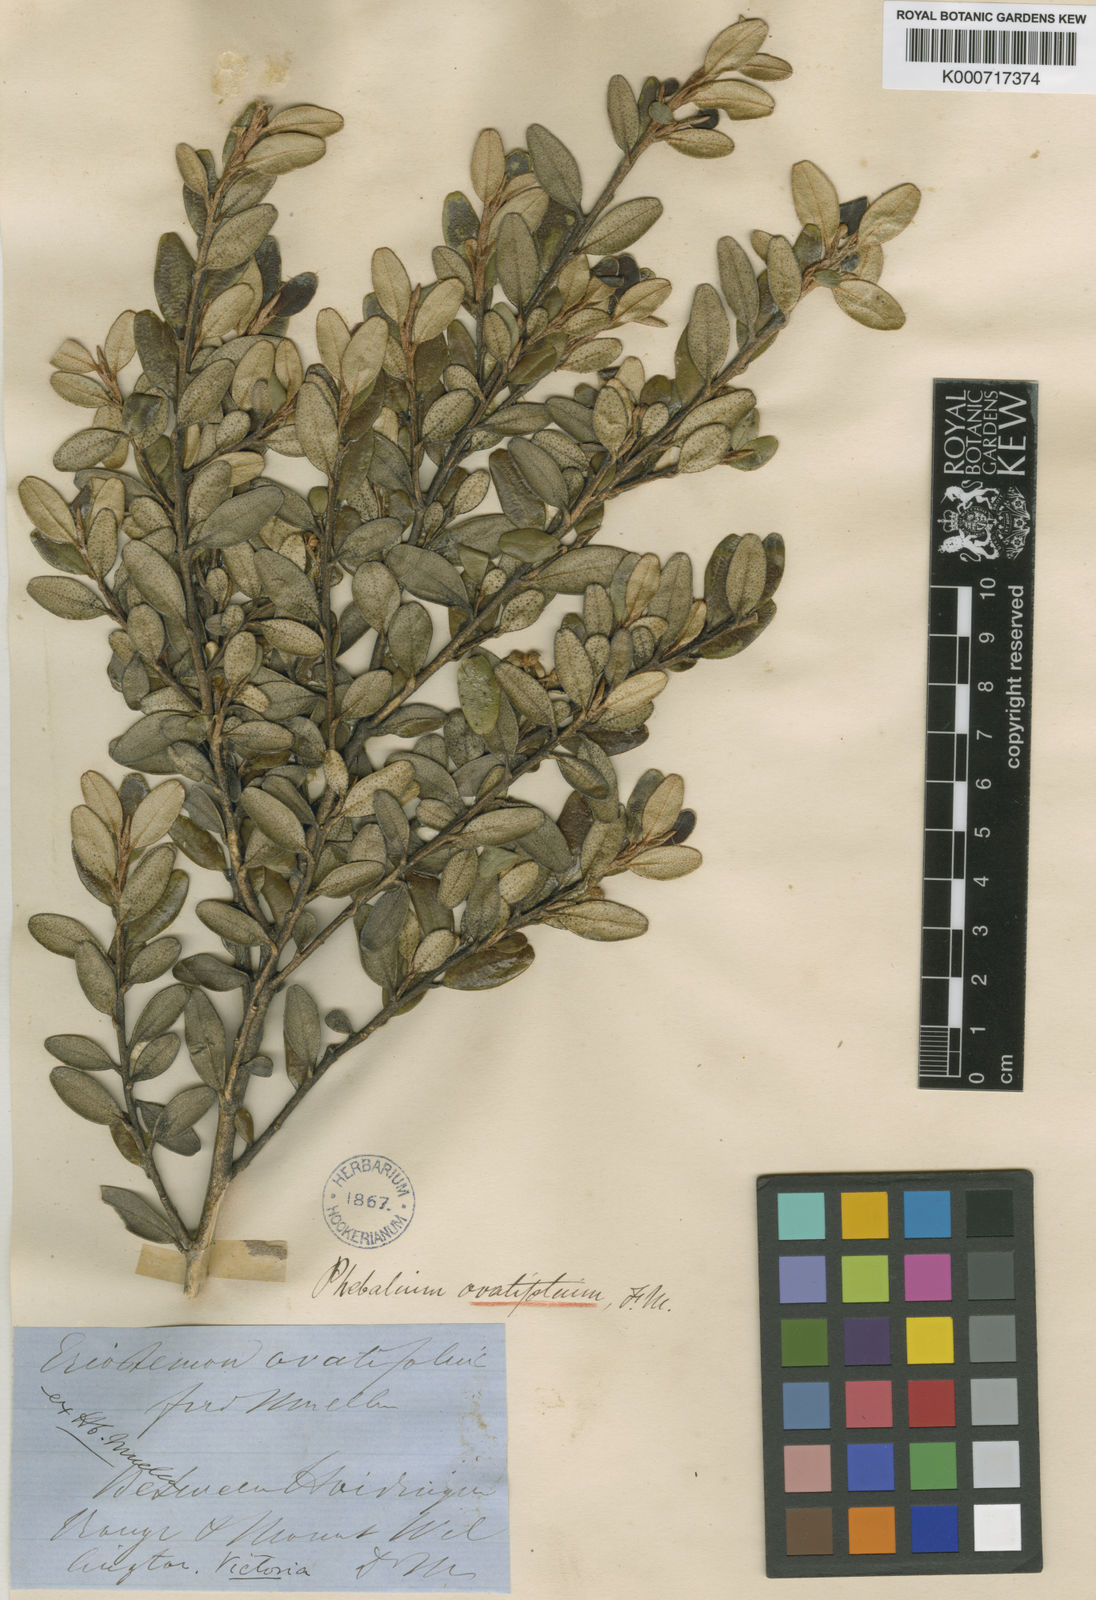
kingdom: Plantae
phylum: Tracheophyta
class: Magnoliopsida
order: Sapindales
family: Rutaceae
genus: Phebalium
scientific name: Phebalium
